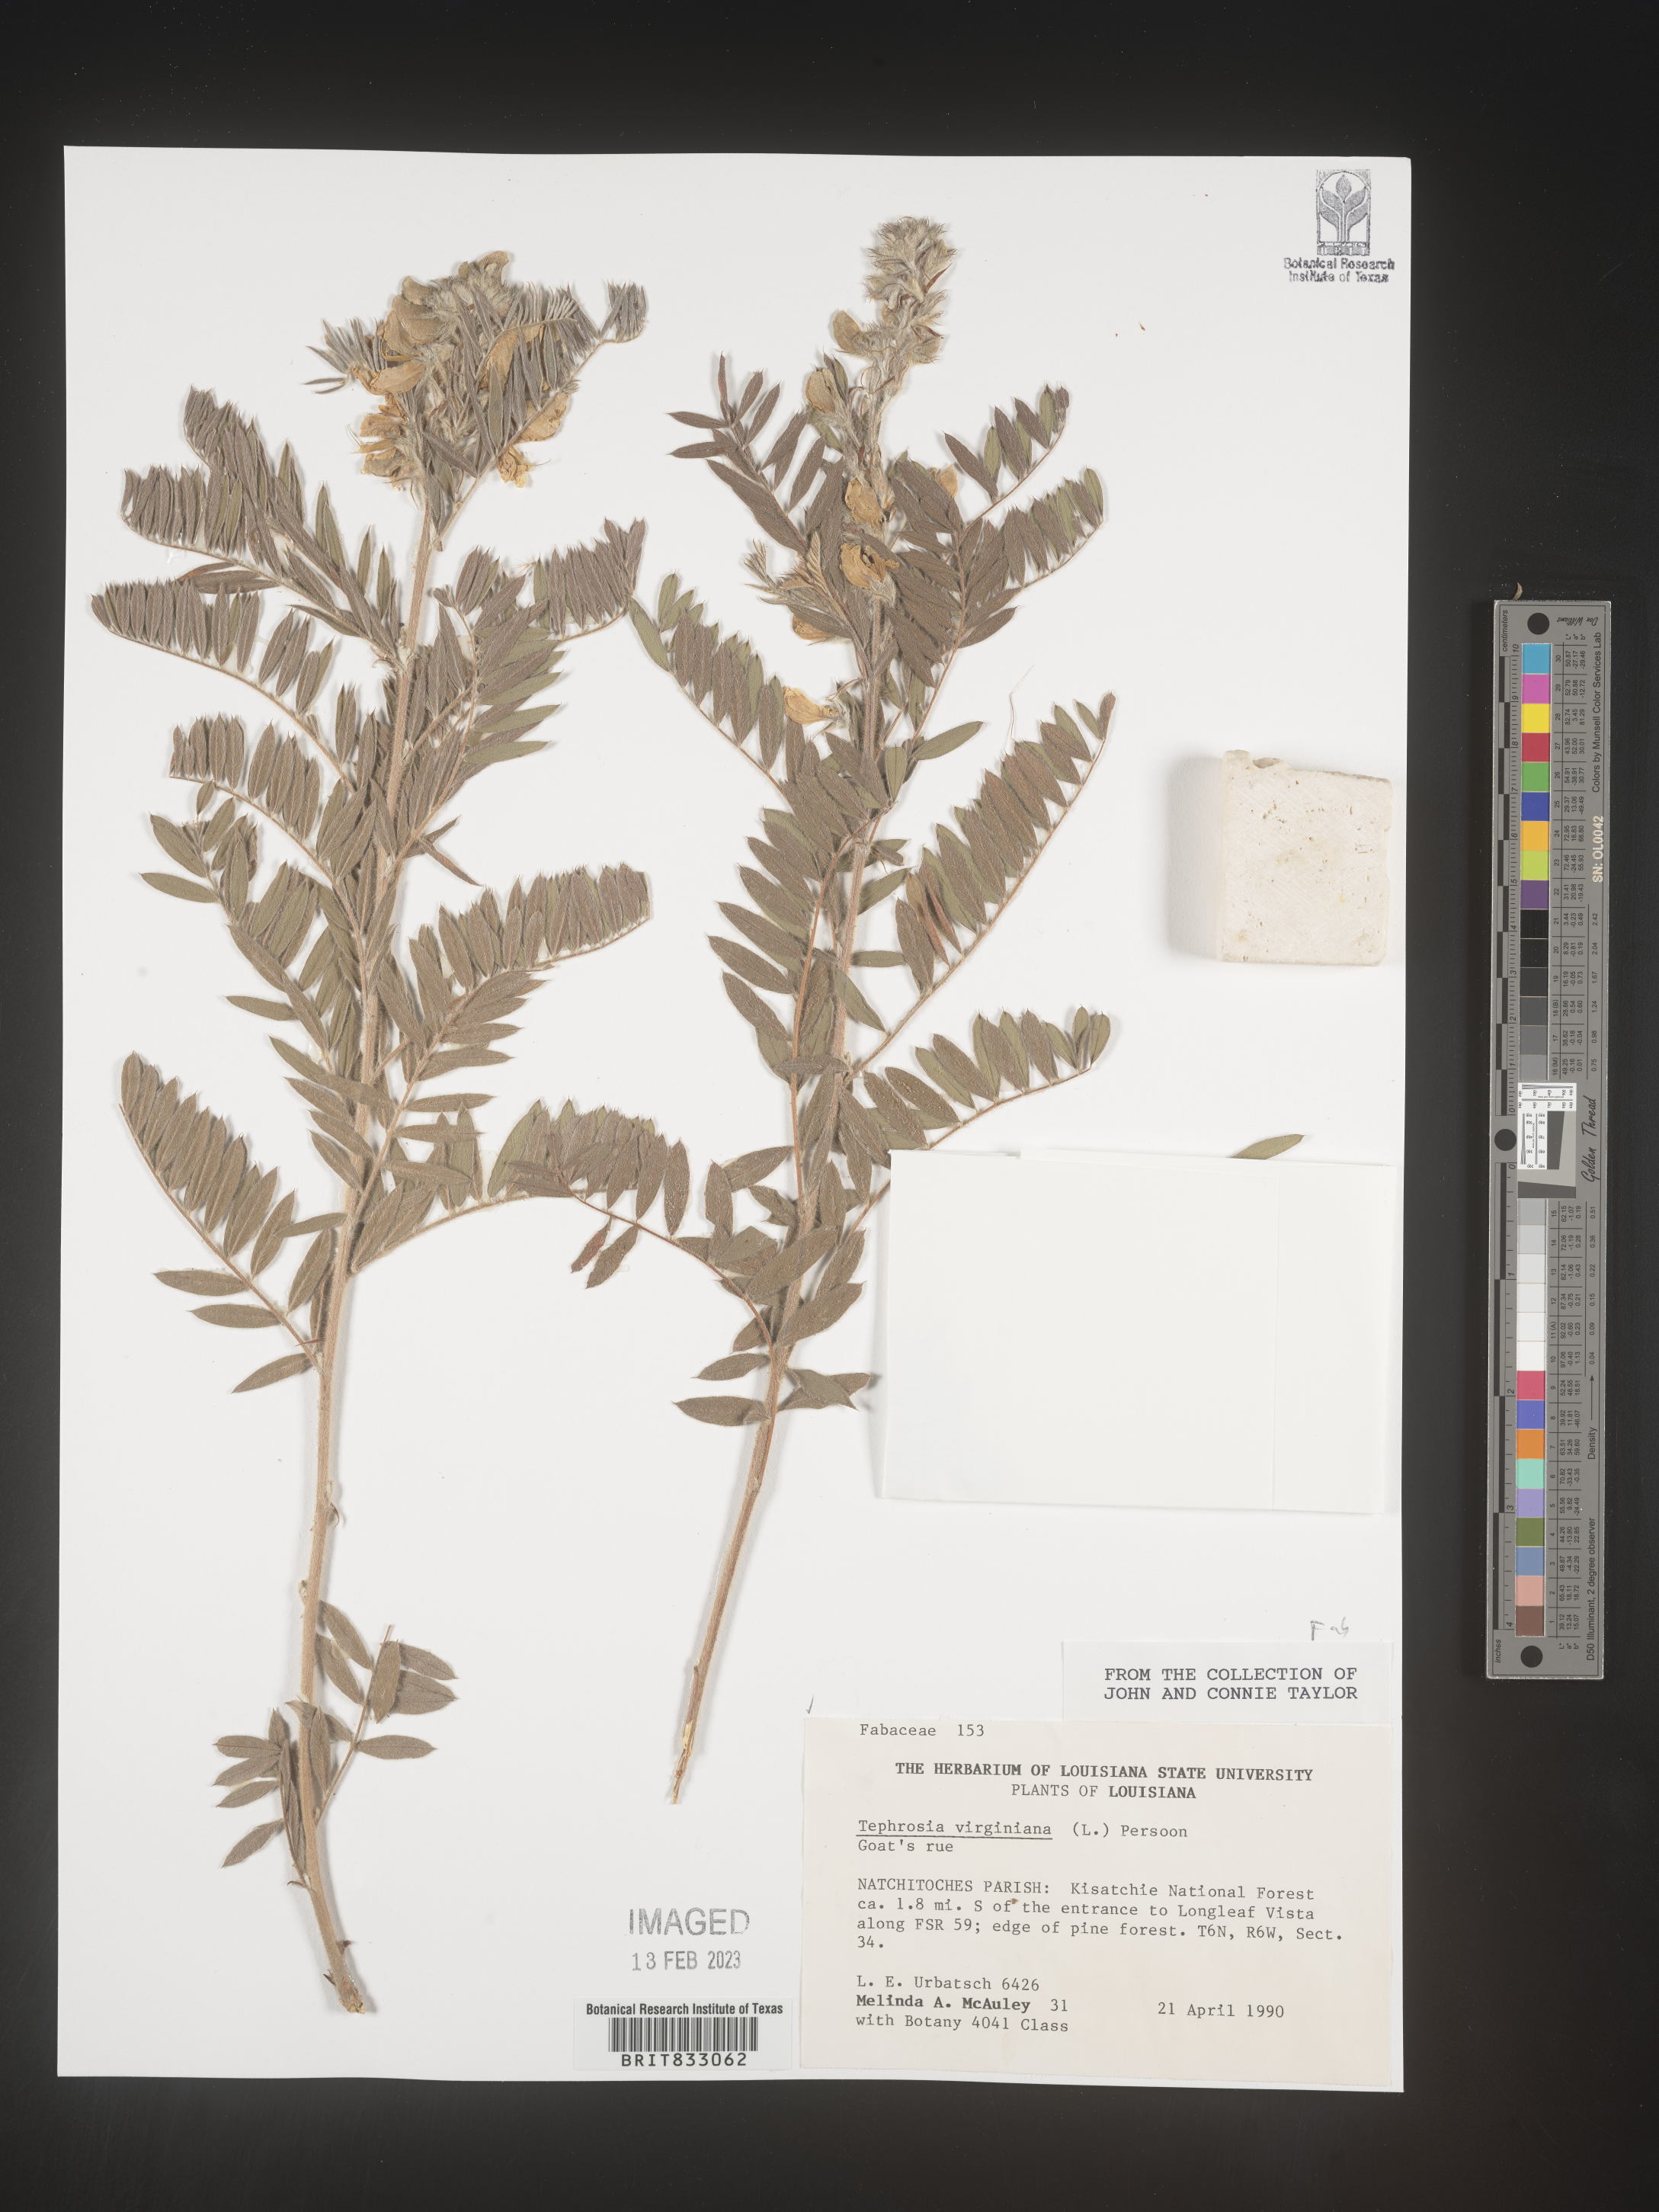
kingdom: Plantae
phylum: Tracheophyta
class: Magnoliopsida
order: Fabales
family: Fabaceae
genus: Tephrosia
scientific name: Tephrosia virginiana
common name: Rabbit-pea
